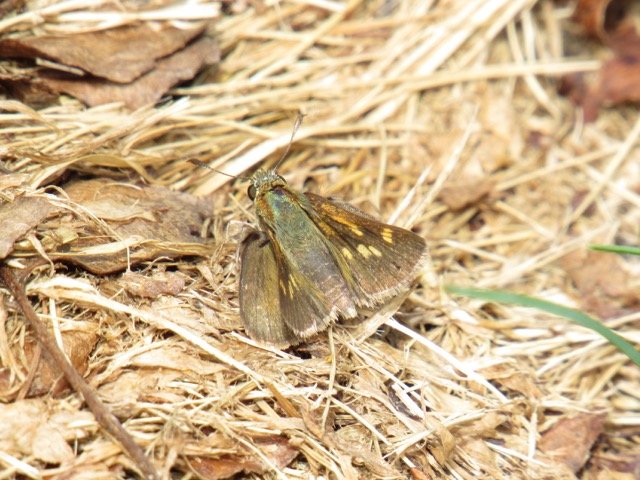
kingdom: Animalia
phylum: Arthropoda
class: Insecta
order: Lepidoptera
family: Hesperiidae
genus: Polites
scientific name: Polites themistocles
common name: Tawny-edged Skipper
